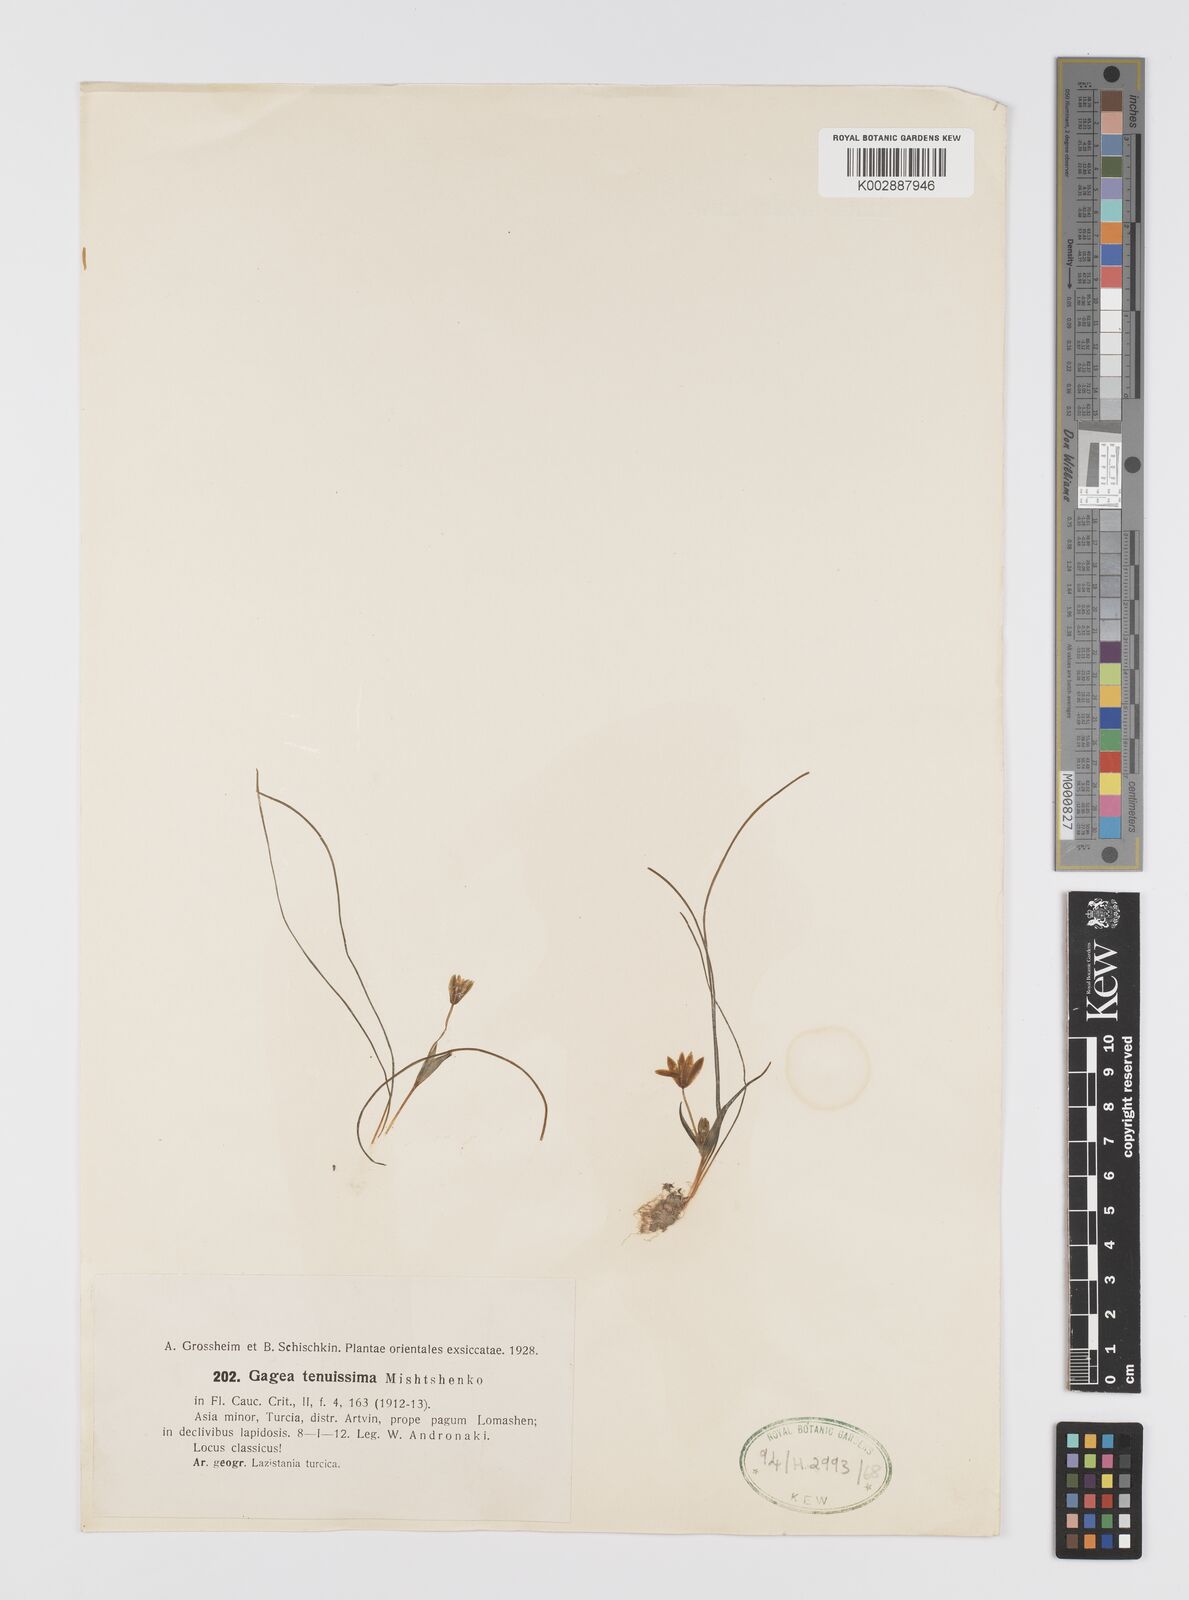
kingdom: Plantae
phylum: Tracheophyta
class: Liliopsida
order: Liliales
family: Liliaceae
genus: Gagea
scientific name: Gagea tenuissima
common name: Thinnest gagea
